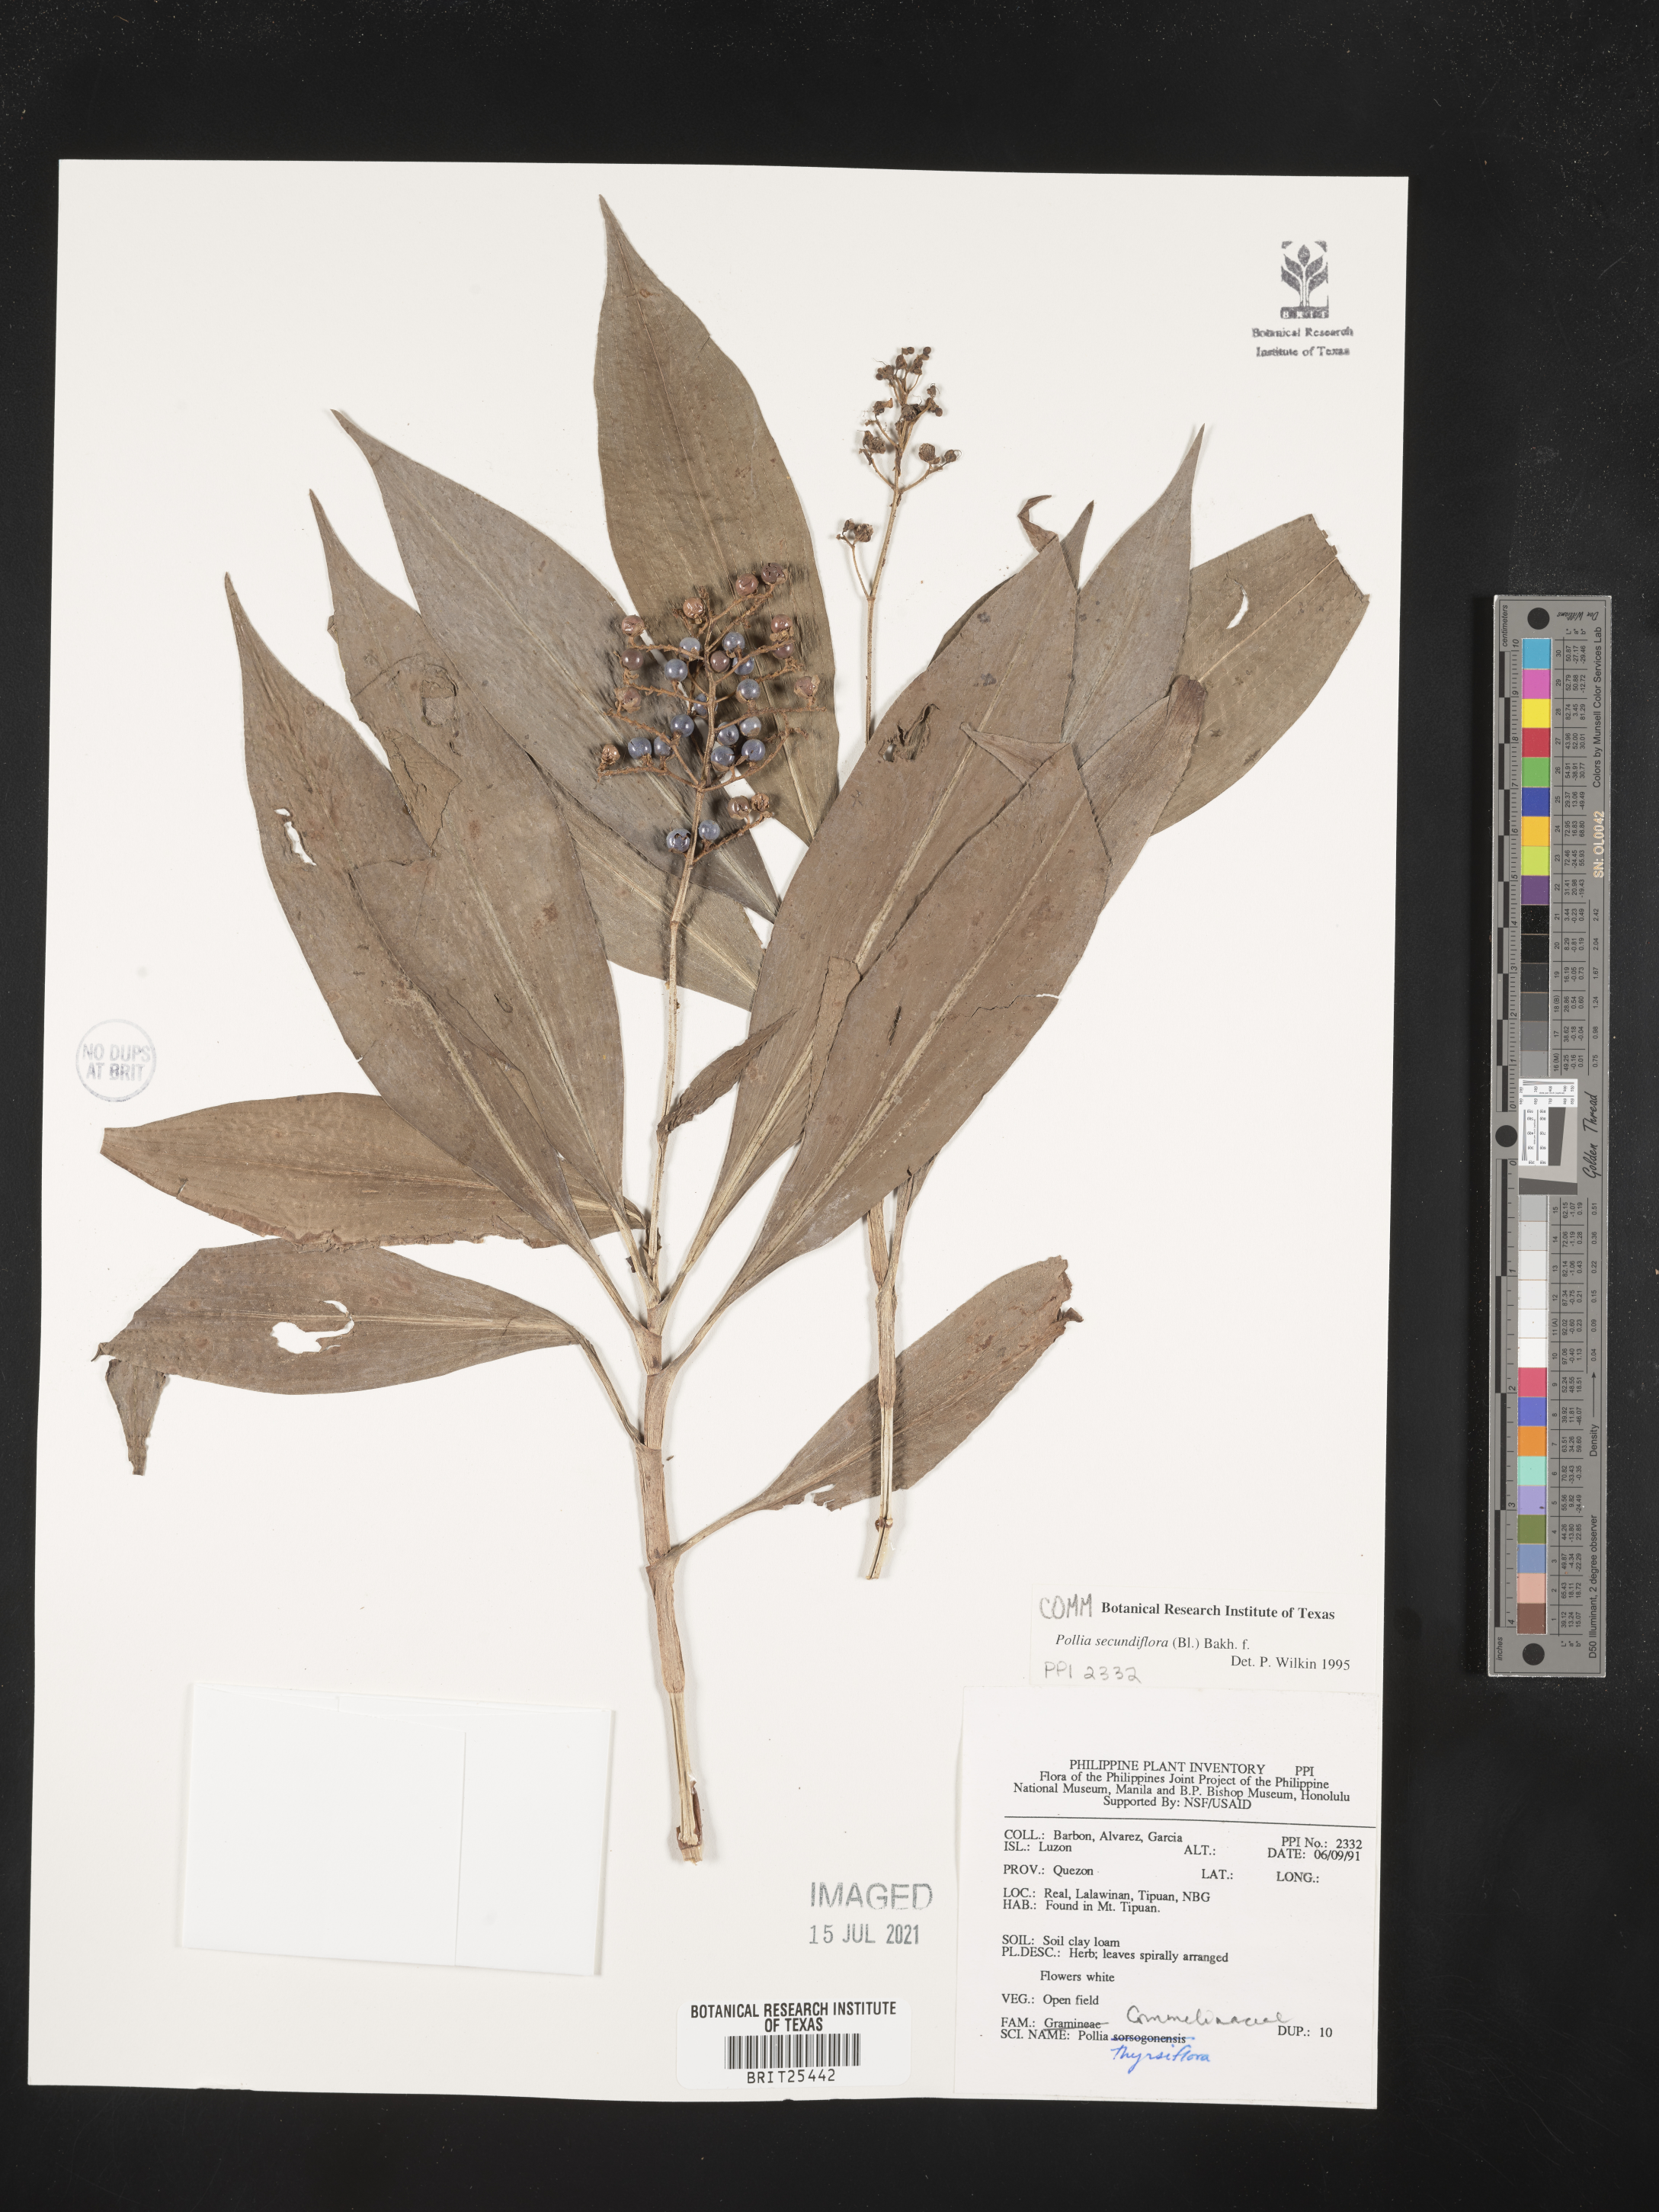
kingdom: Plantae
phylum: Tracheophyta
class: Liliopsida
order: Commelinales
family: Commelinaceae
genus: Pollia
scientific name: Pollia secundiflora
